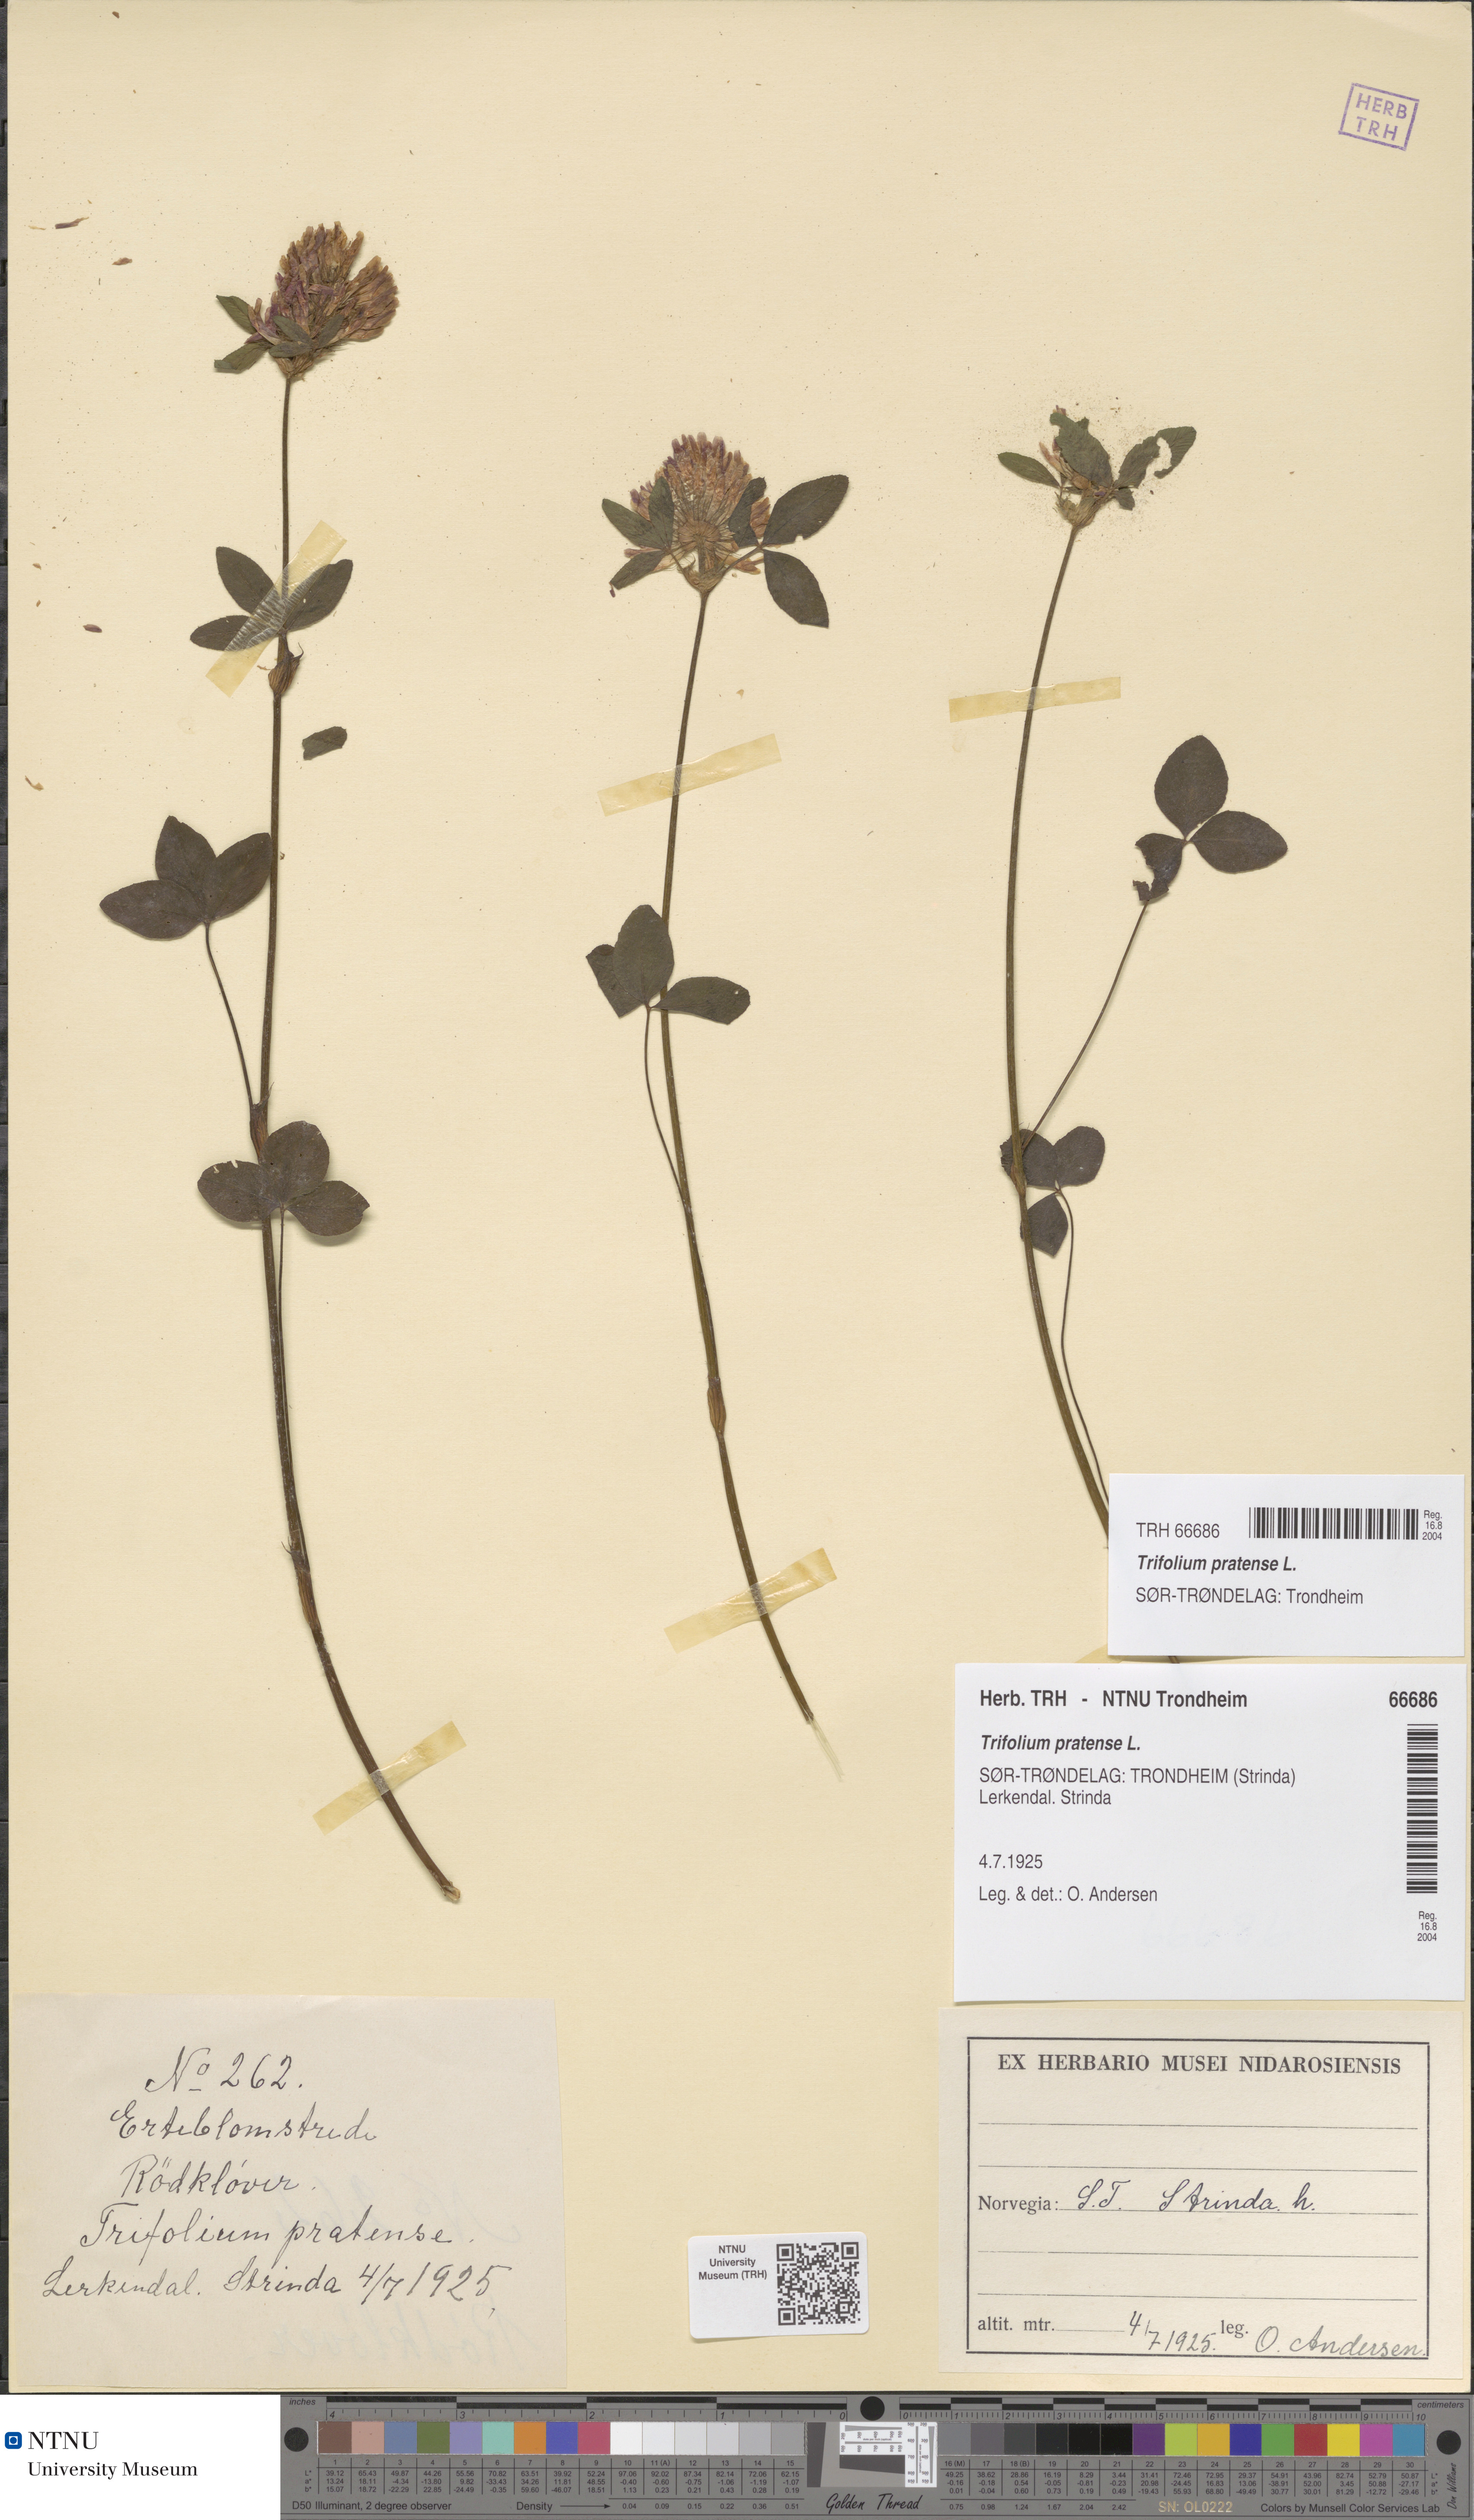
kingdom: Plantae
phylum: Tracheophyta
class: Magnoliopsida
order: Fabales
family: Fabaceae
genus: Trifolium
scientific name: Trifolium pratense
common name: Red clover
